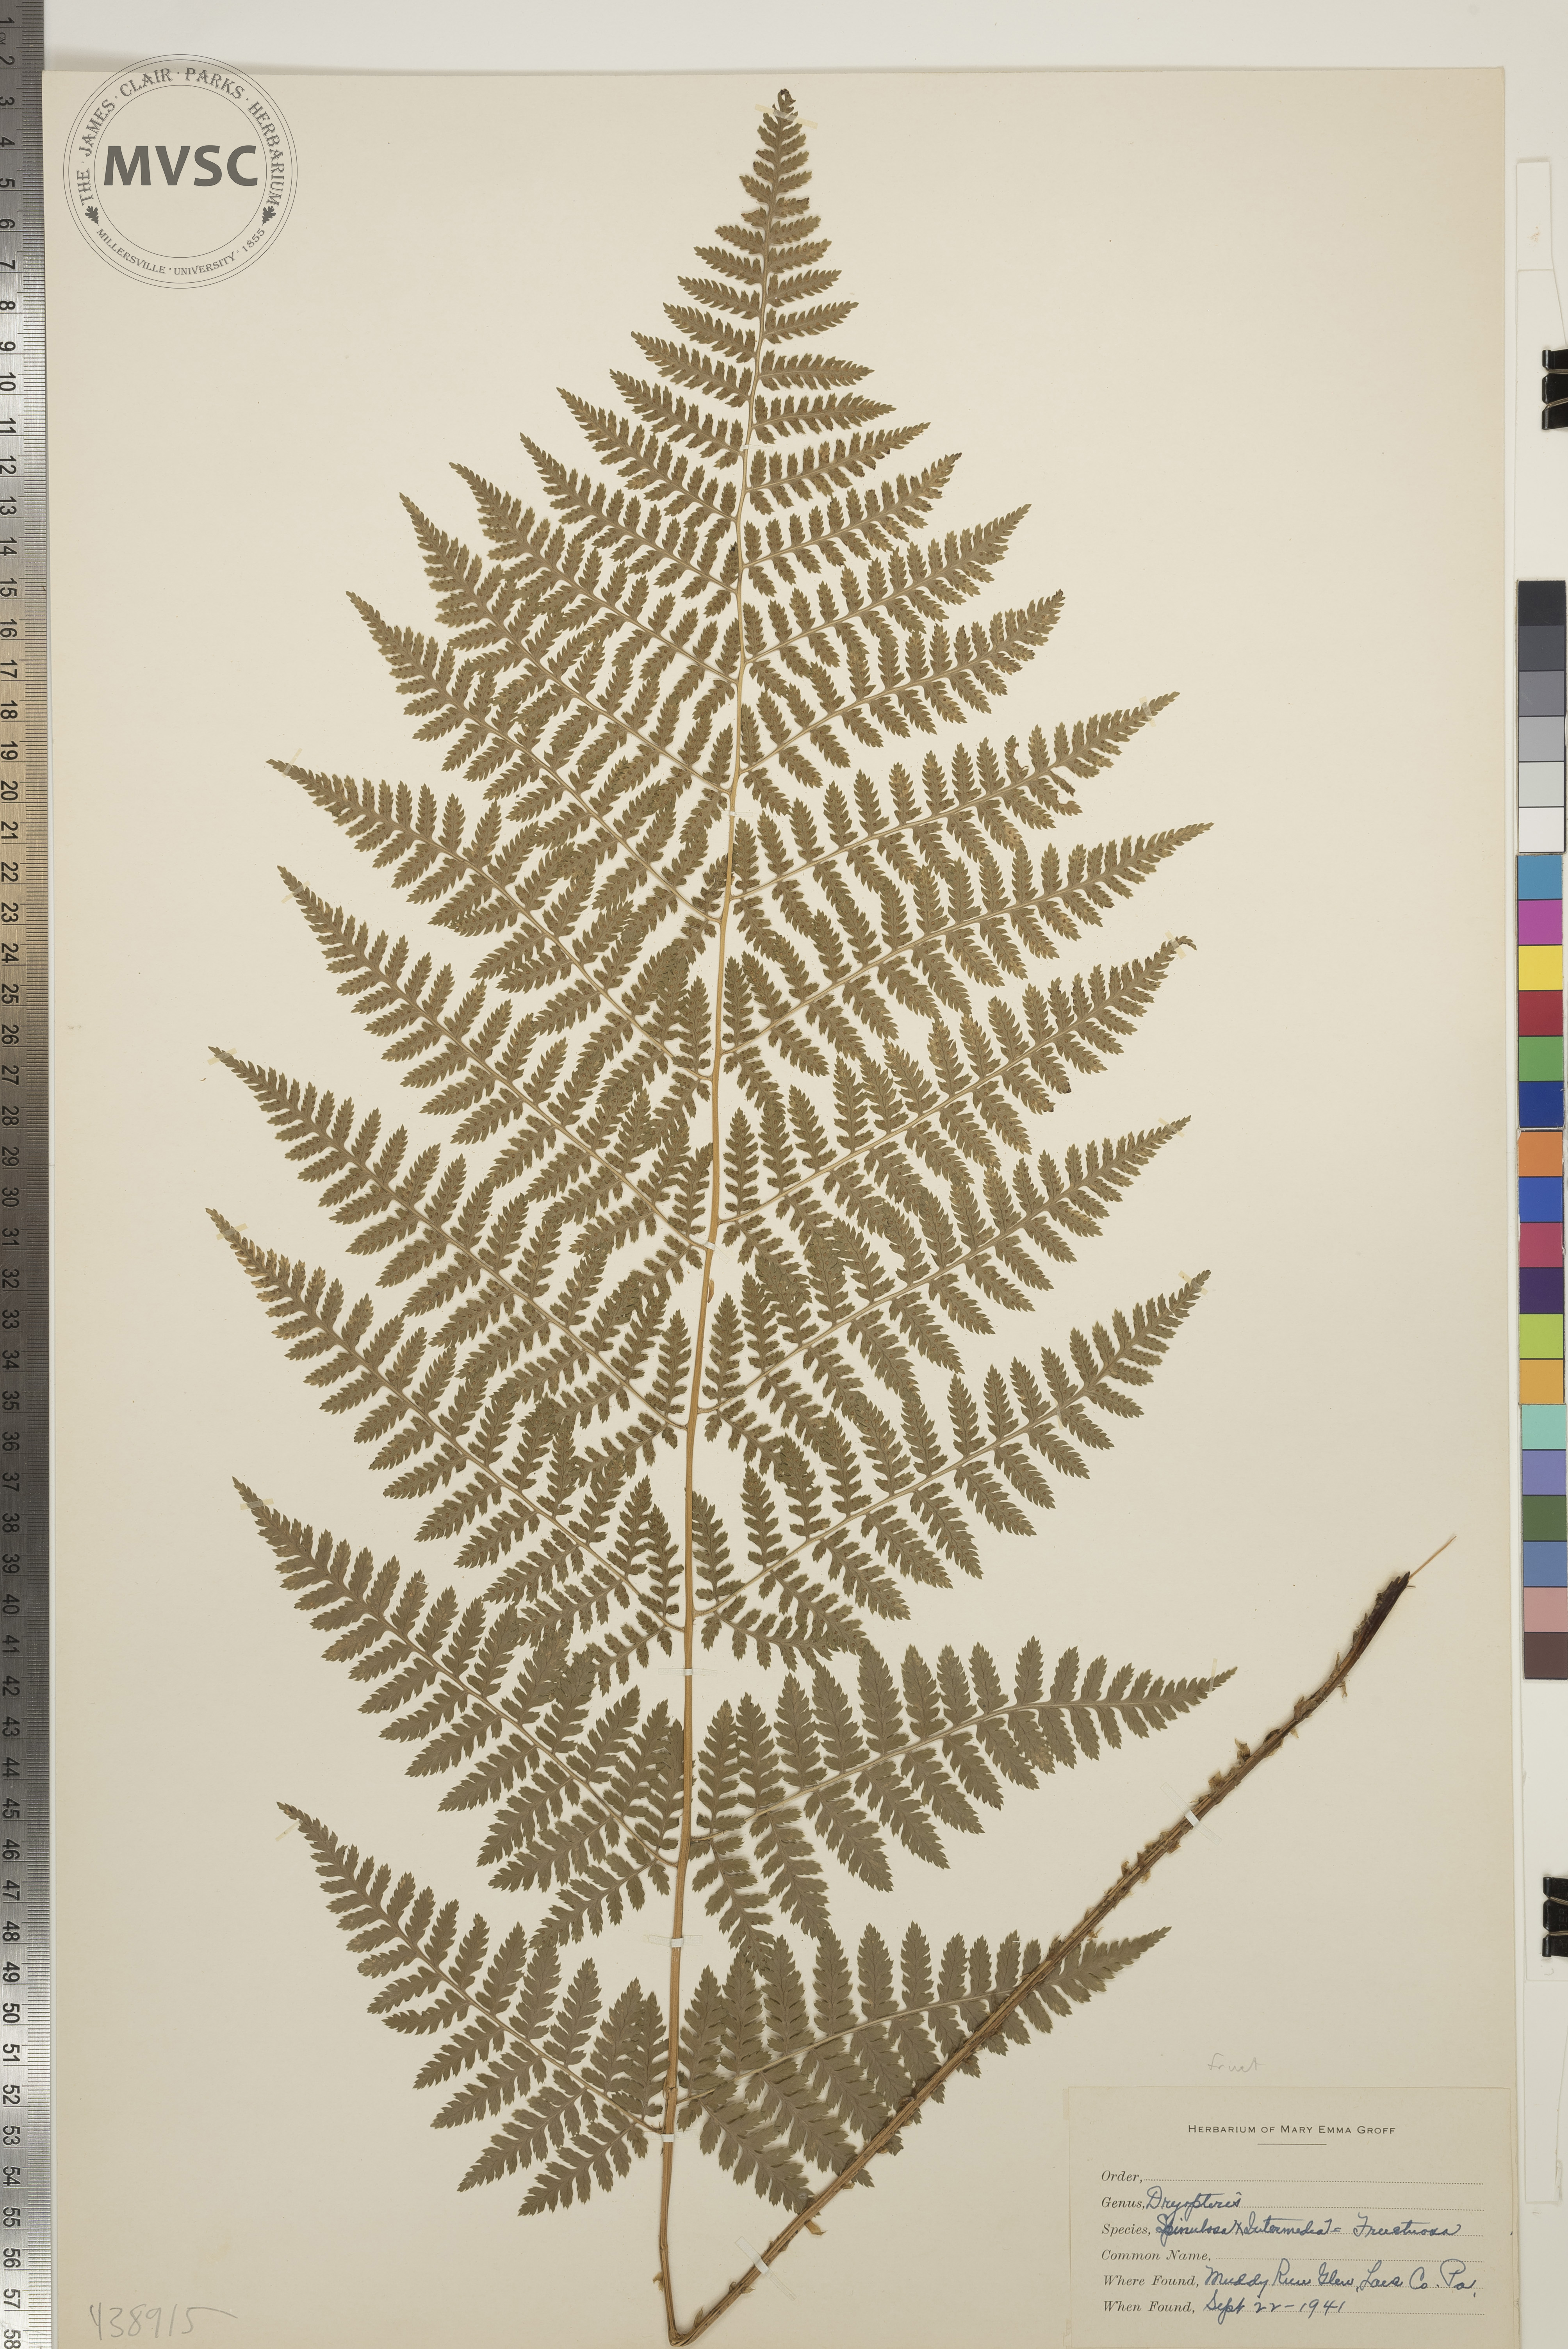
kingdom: Plantae
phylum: Tracheophyta
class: Polypodiopsida
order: Polypodiales
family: Dryopteridaceae
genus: Dryopteris
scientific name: Dryopteris
